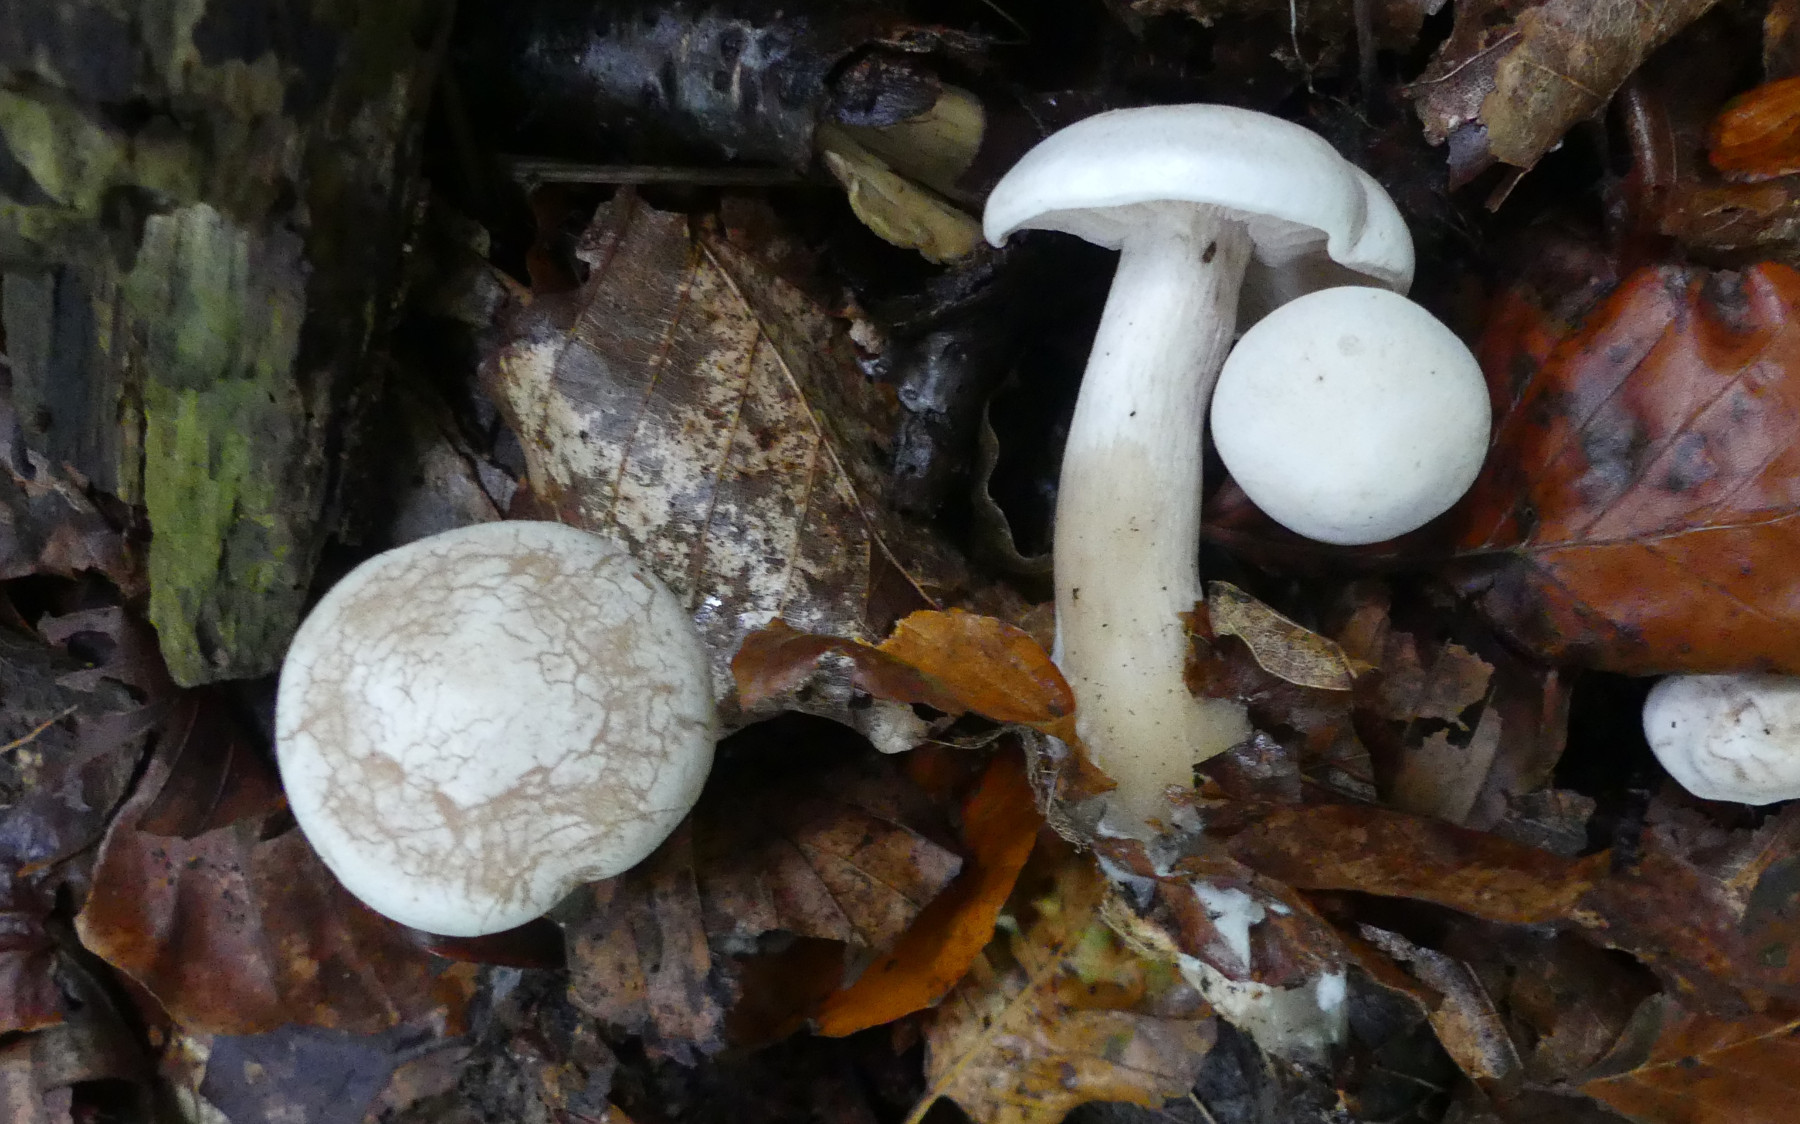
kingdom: Fungi
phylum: Basidiomycota
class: Agaricomycetes
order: Agaricales
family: Tricholomataceae
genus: Clitocybe
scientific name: Clitocybe phyllophila
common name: løv-tragthat
